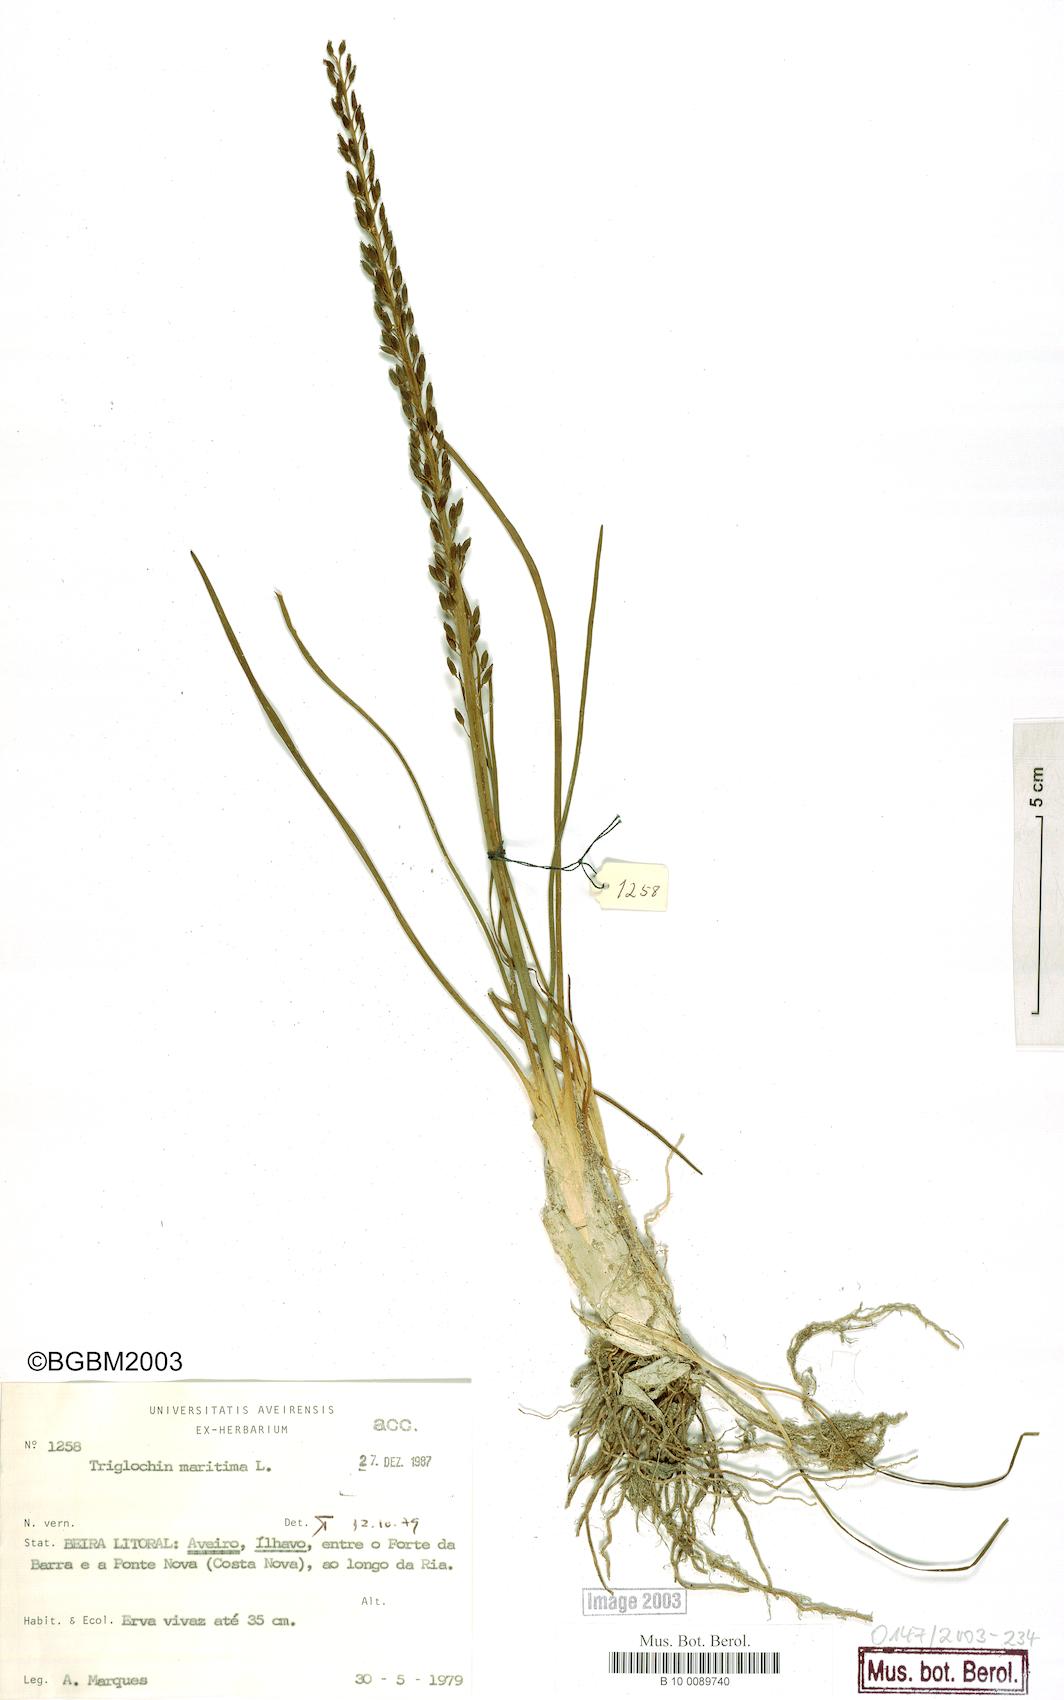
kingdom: Plantae
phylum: Tracheophyta
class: Liliopsida
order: Alismatales
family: Juncaginaceae
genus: Triglochin
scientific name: Triglochin maritima
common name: Sea arrowgrass
